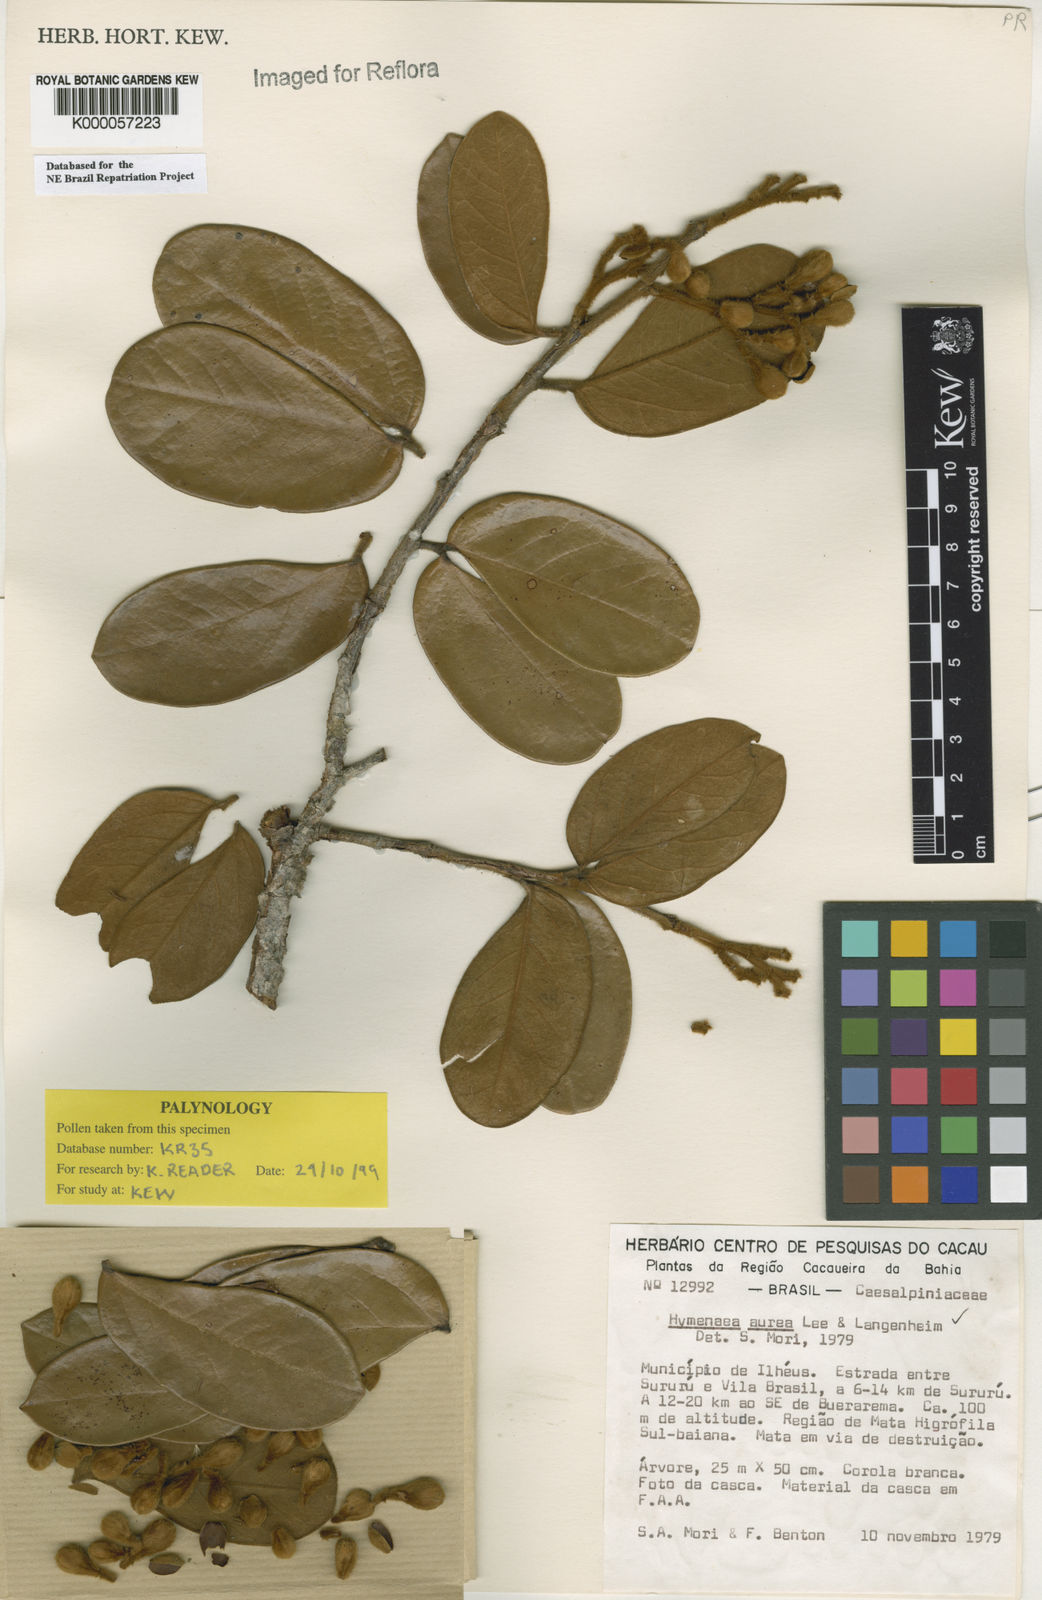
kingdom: Plantae
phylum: Tracheophyta
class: Magnoliopsida
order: Fabales
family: Fabaceae
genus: Hymenaea
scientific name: Hymenaea aurea
